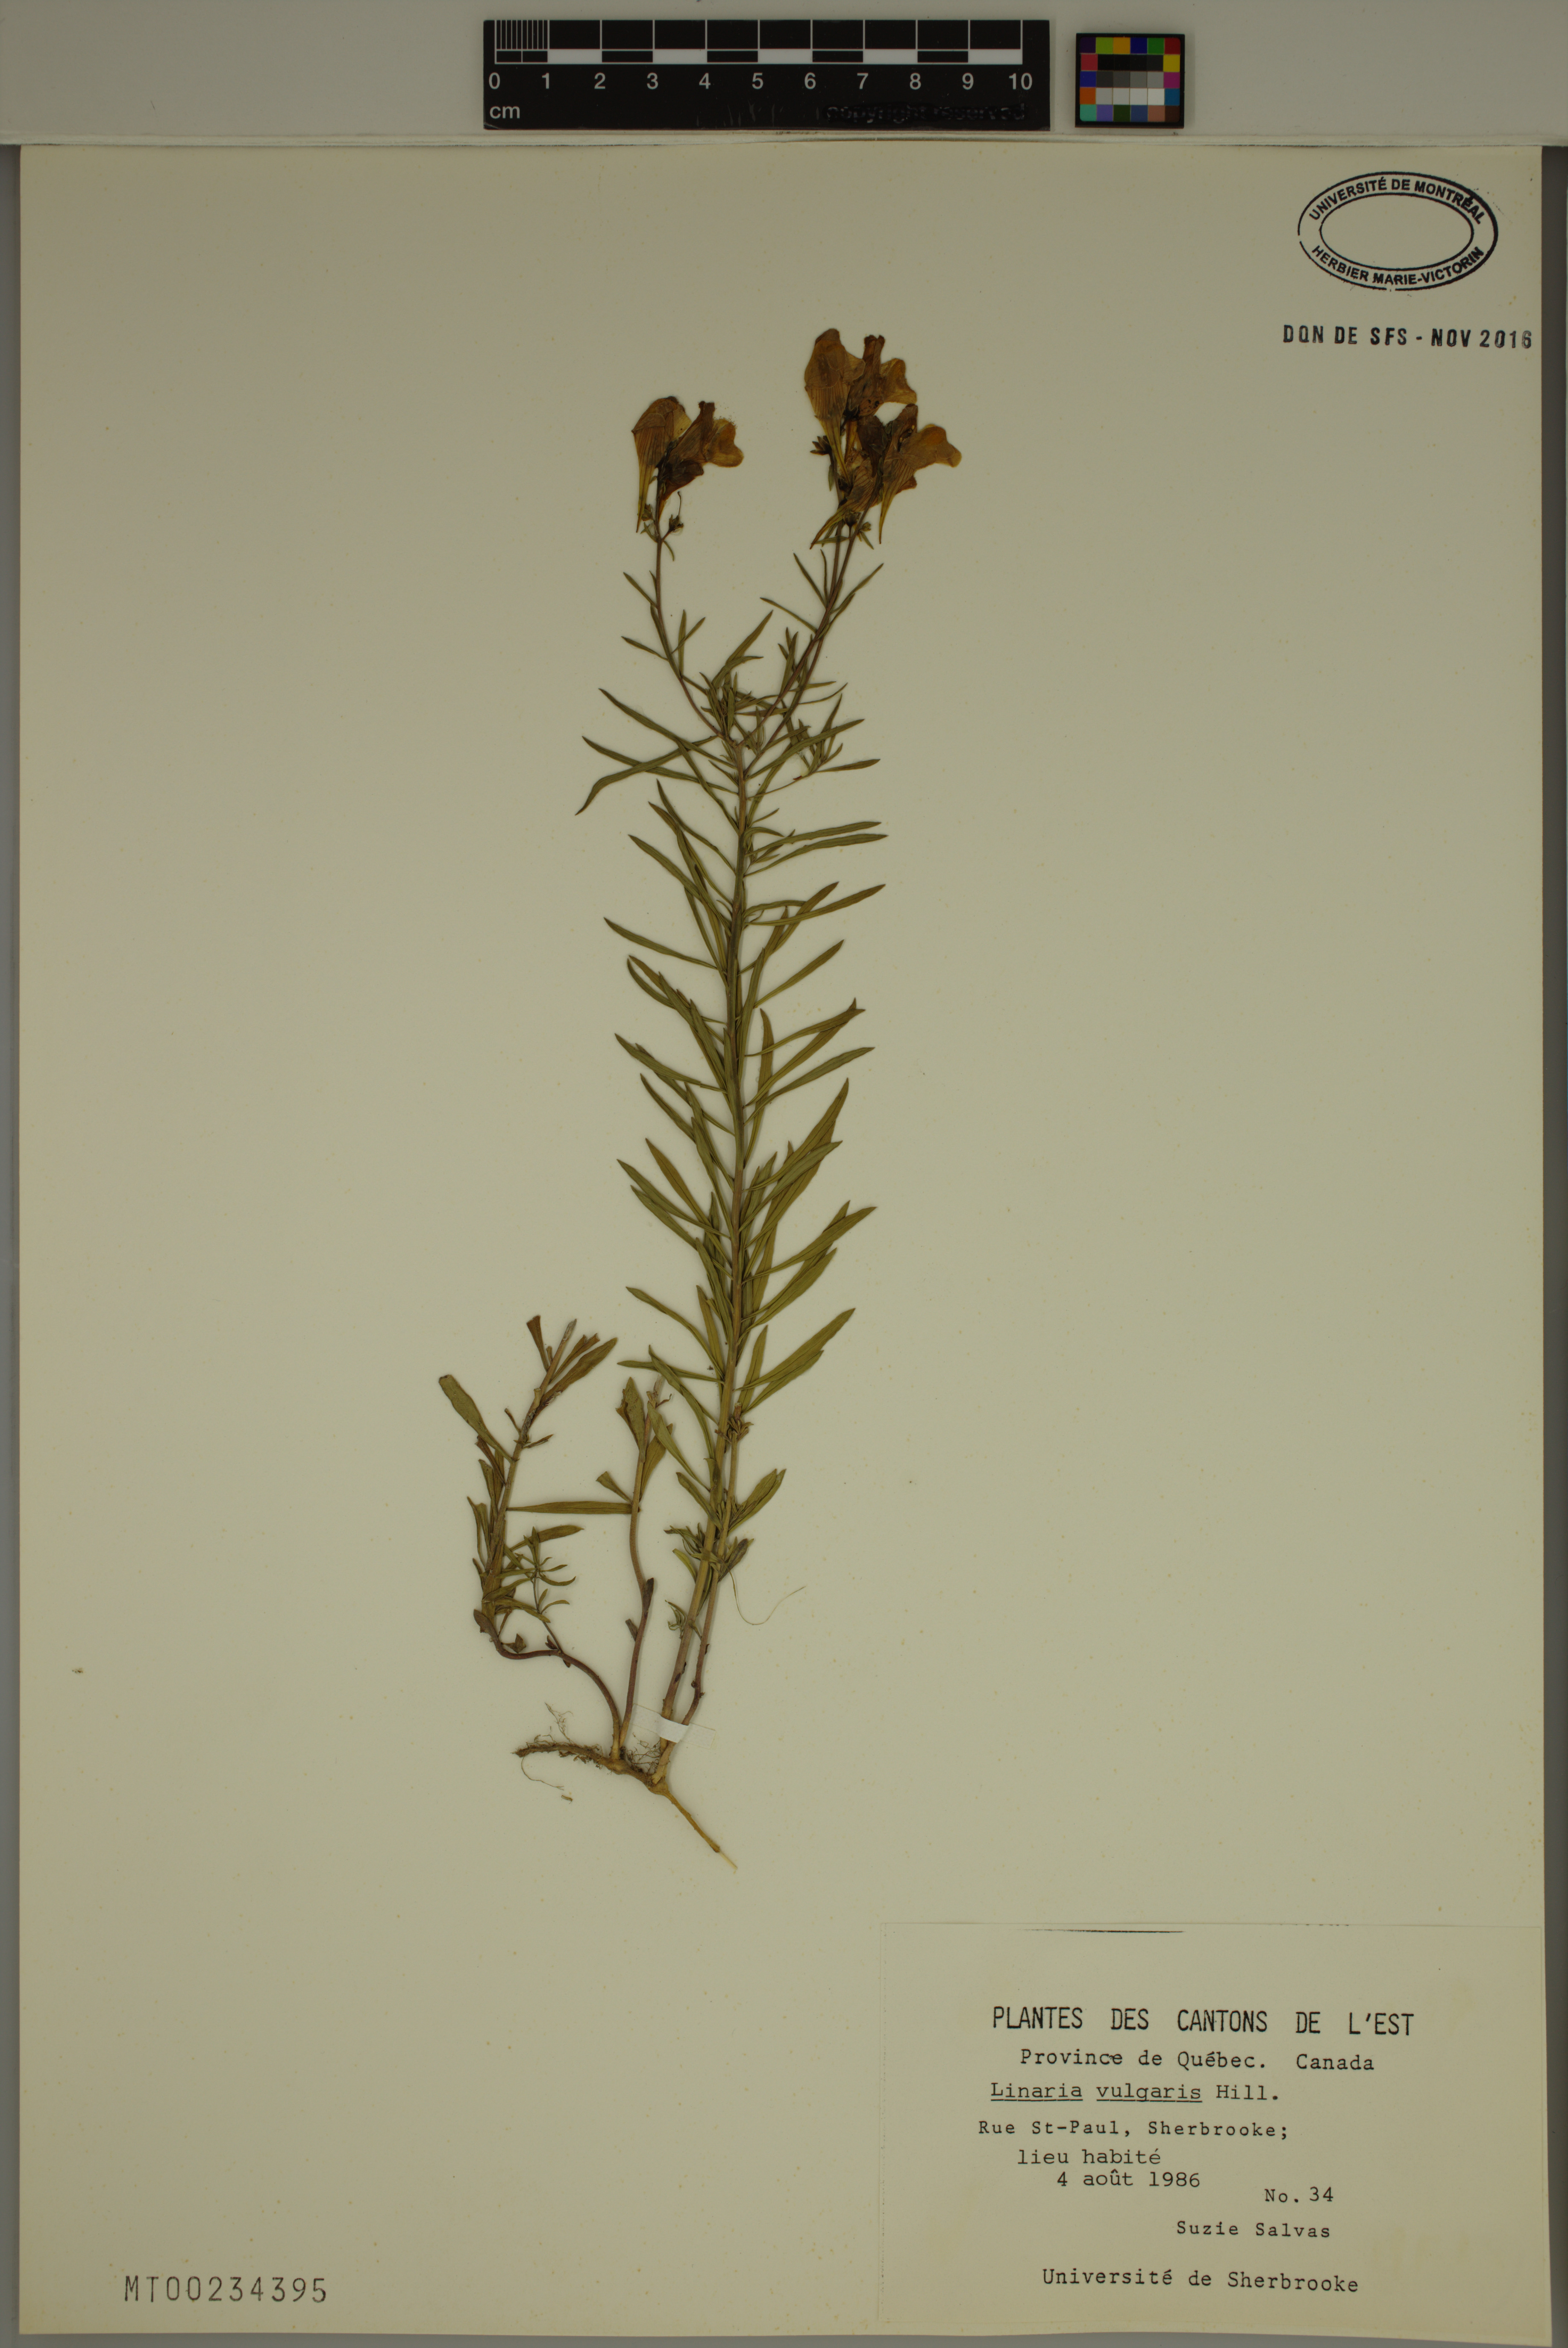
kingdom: Plantae
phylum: Tracheophyta
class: Magnoliopsida
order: Lamiales
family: Plantaginaceae
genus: Linaria
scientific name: Linaria vulgaris
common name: Butter and eggs
